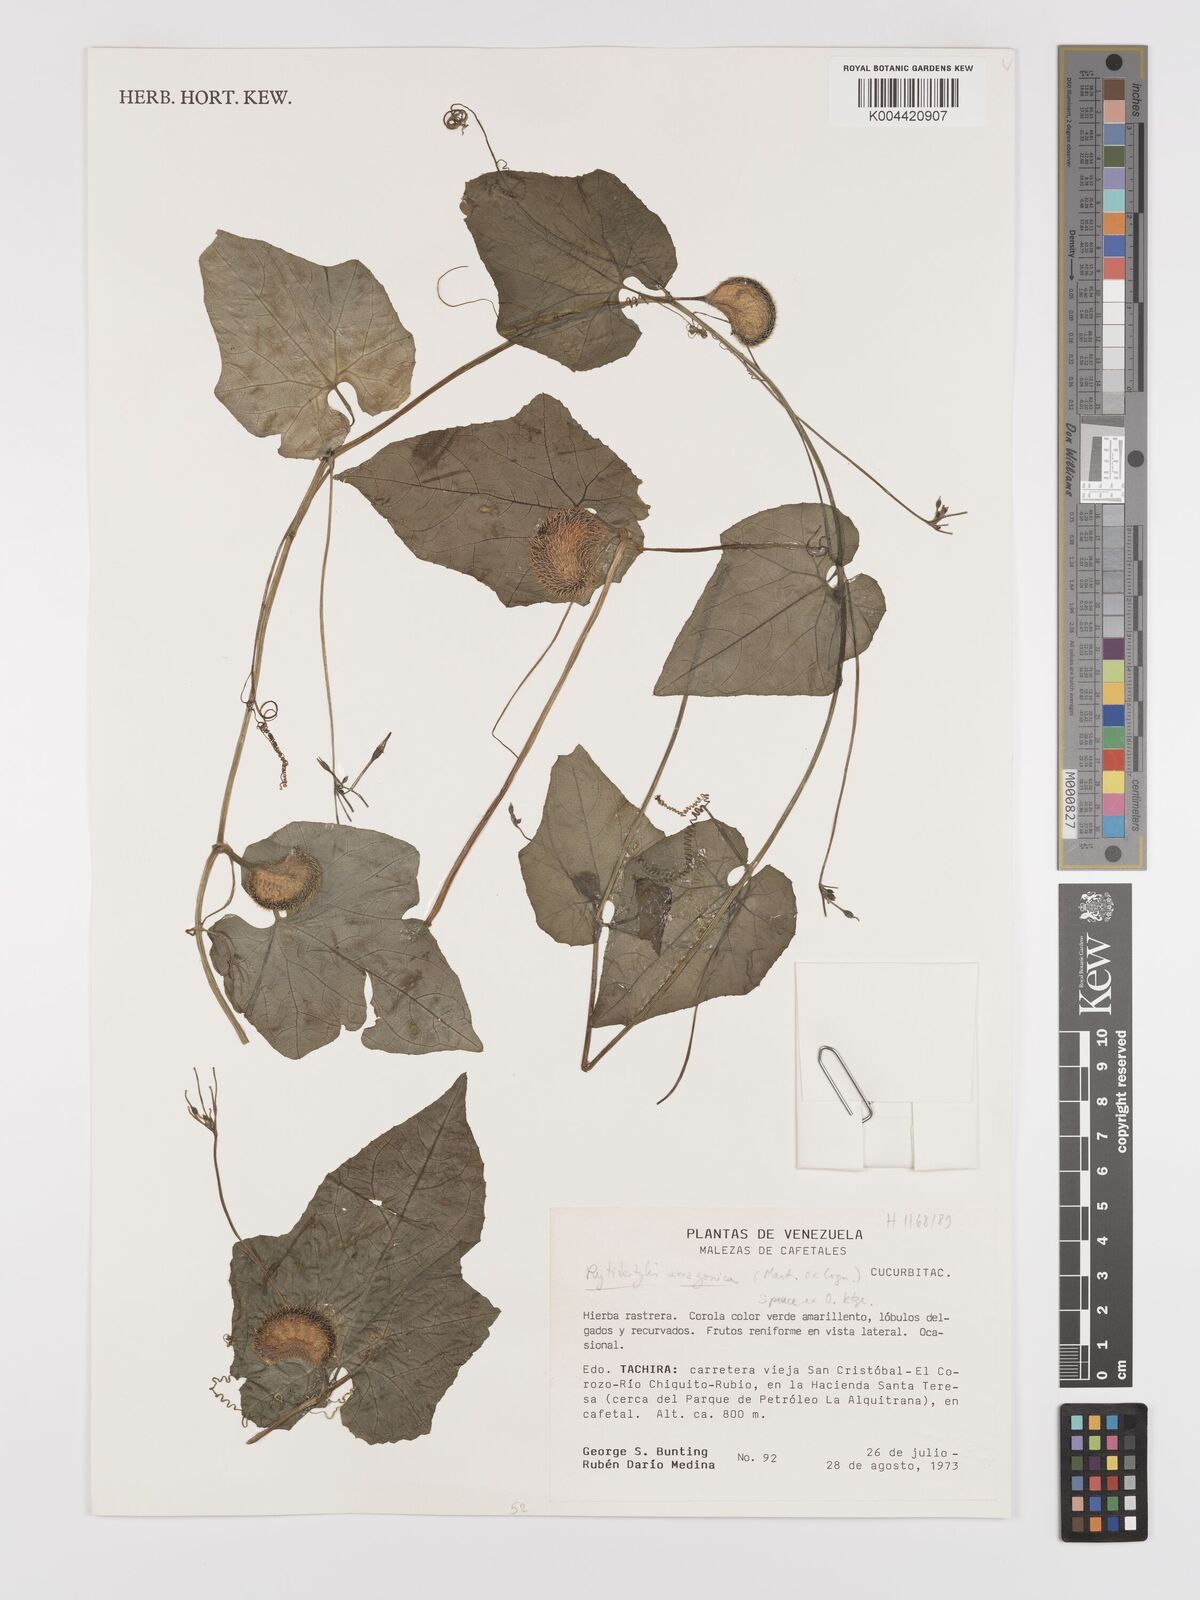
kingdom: Plantae
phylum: Tracheophyta
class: Magnoliopsida
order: Cucurbitales
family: Cucurbitaceae
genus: Cyclanthera
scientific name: Cyclanthera carthagenensis
